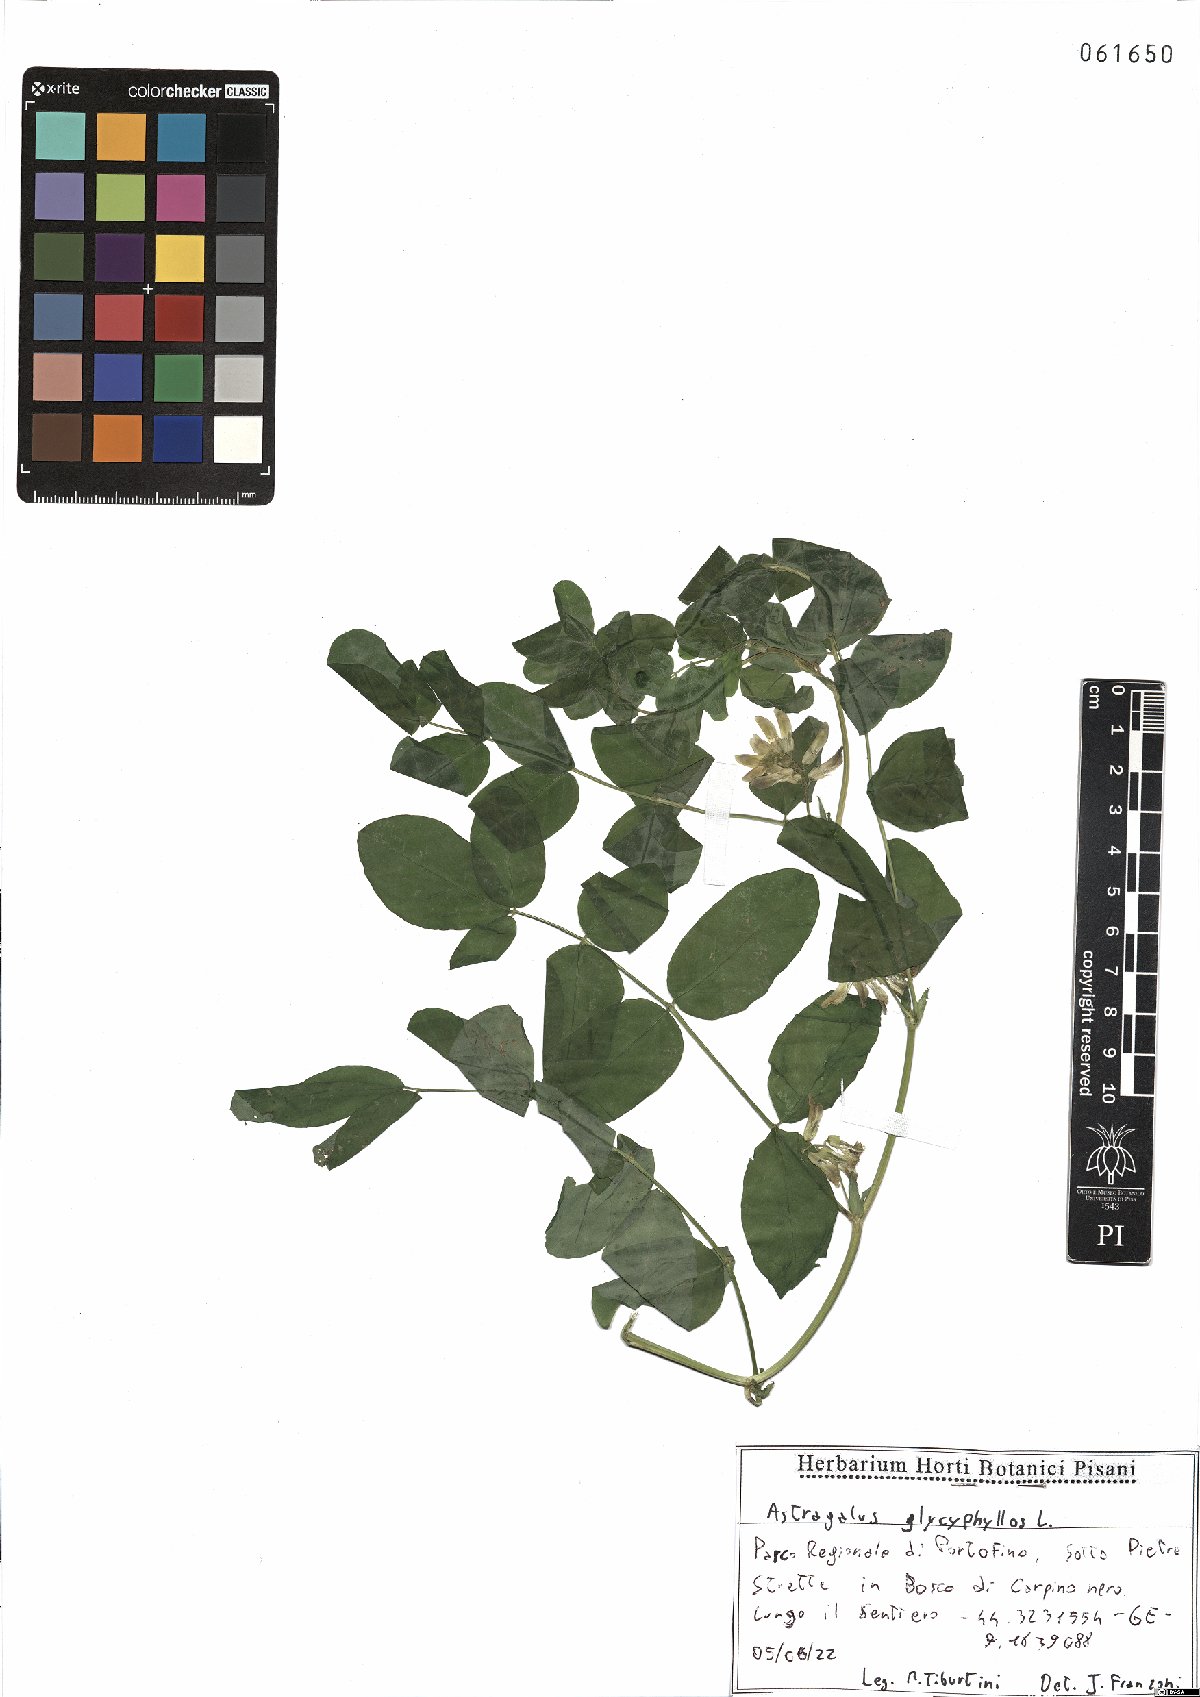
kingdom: Plantae
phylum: Tracheophyta
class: Magnoliopsida
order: Fabales
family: Fabaceae
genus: Astragalus
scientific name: Astragalus glycyphyllos
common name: Wild liquorice
